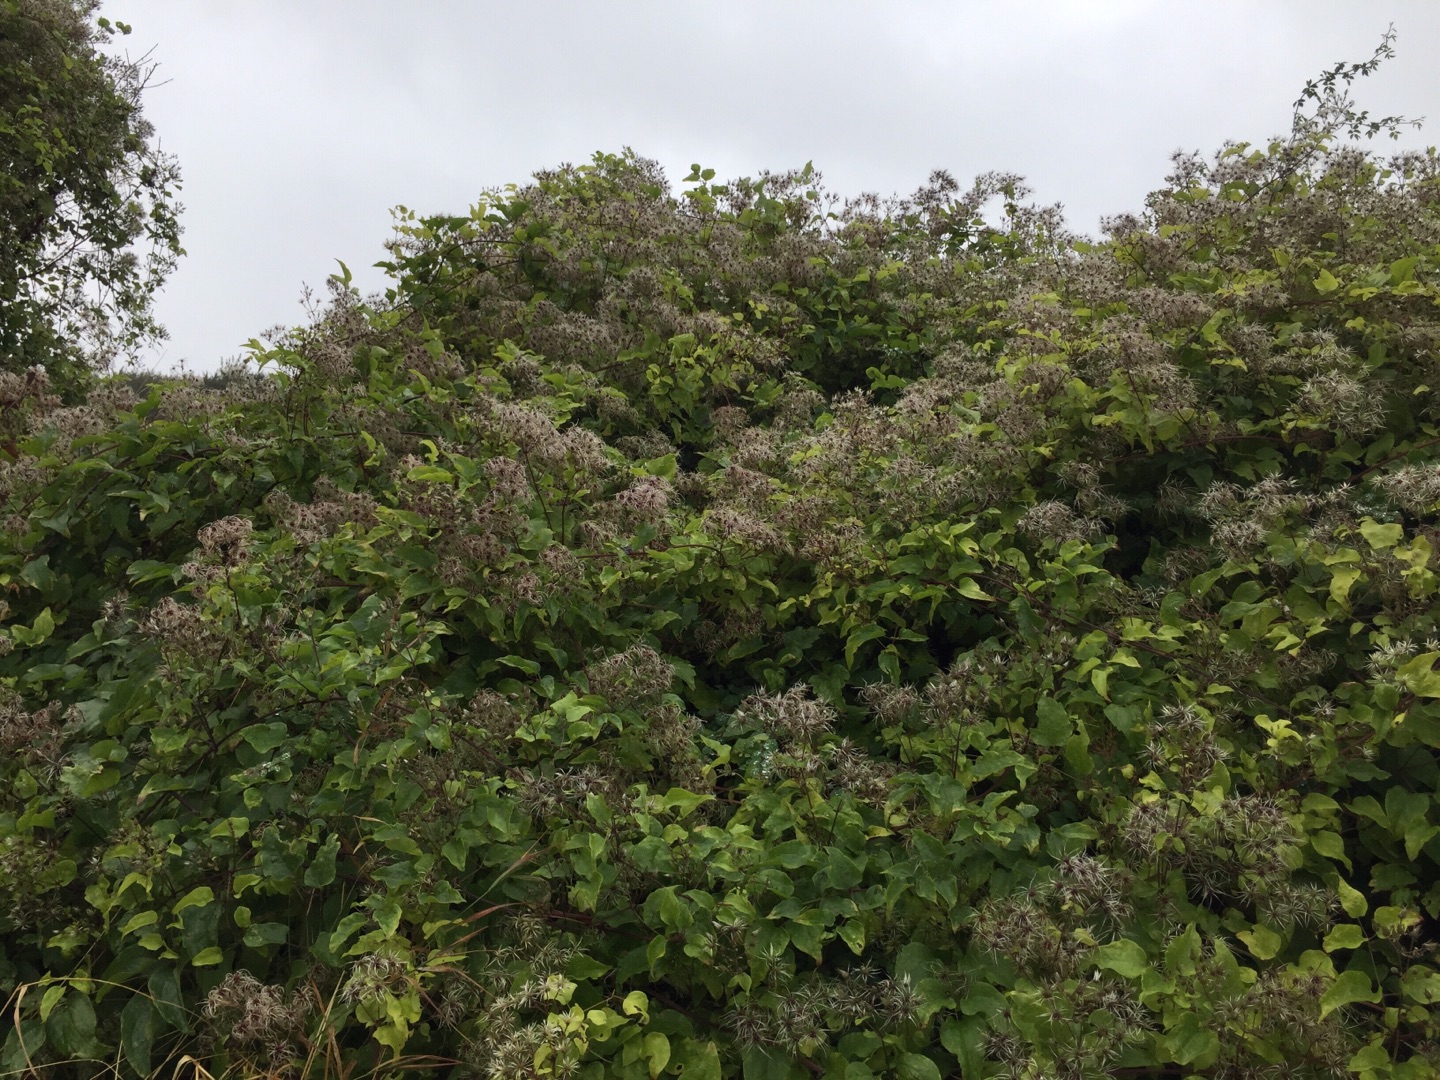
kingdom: Plantae
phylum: Tracheophyta
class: Magnoliopsida
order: Ranunculales
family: Ranunculaceae
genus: Clematis
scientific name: Clematis vitalba
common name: Skovranke
